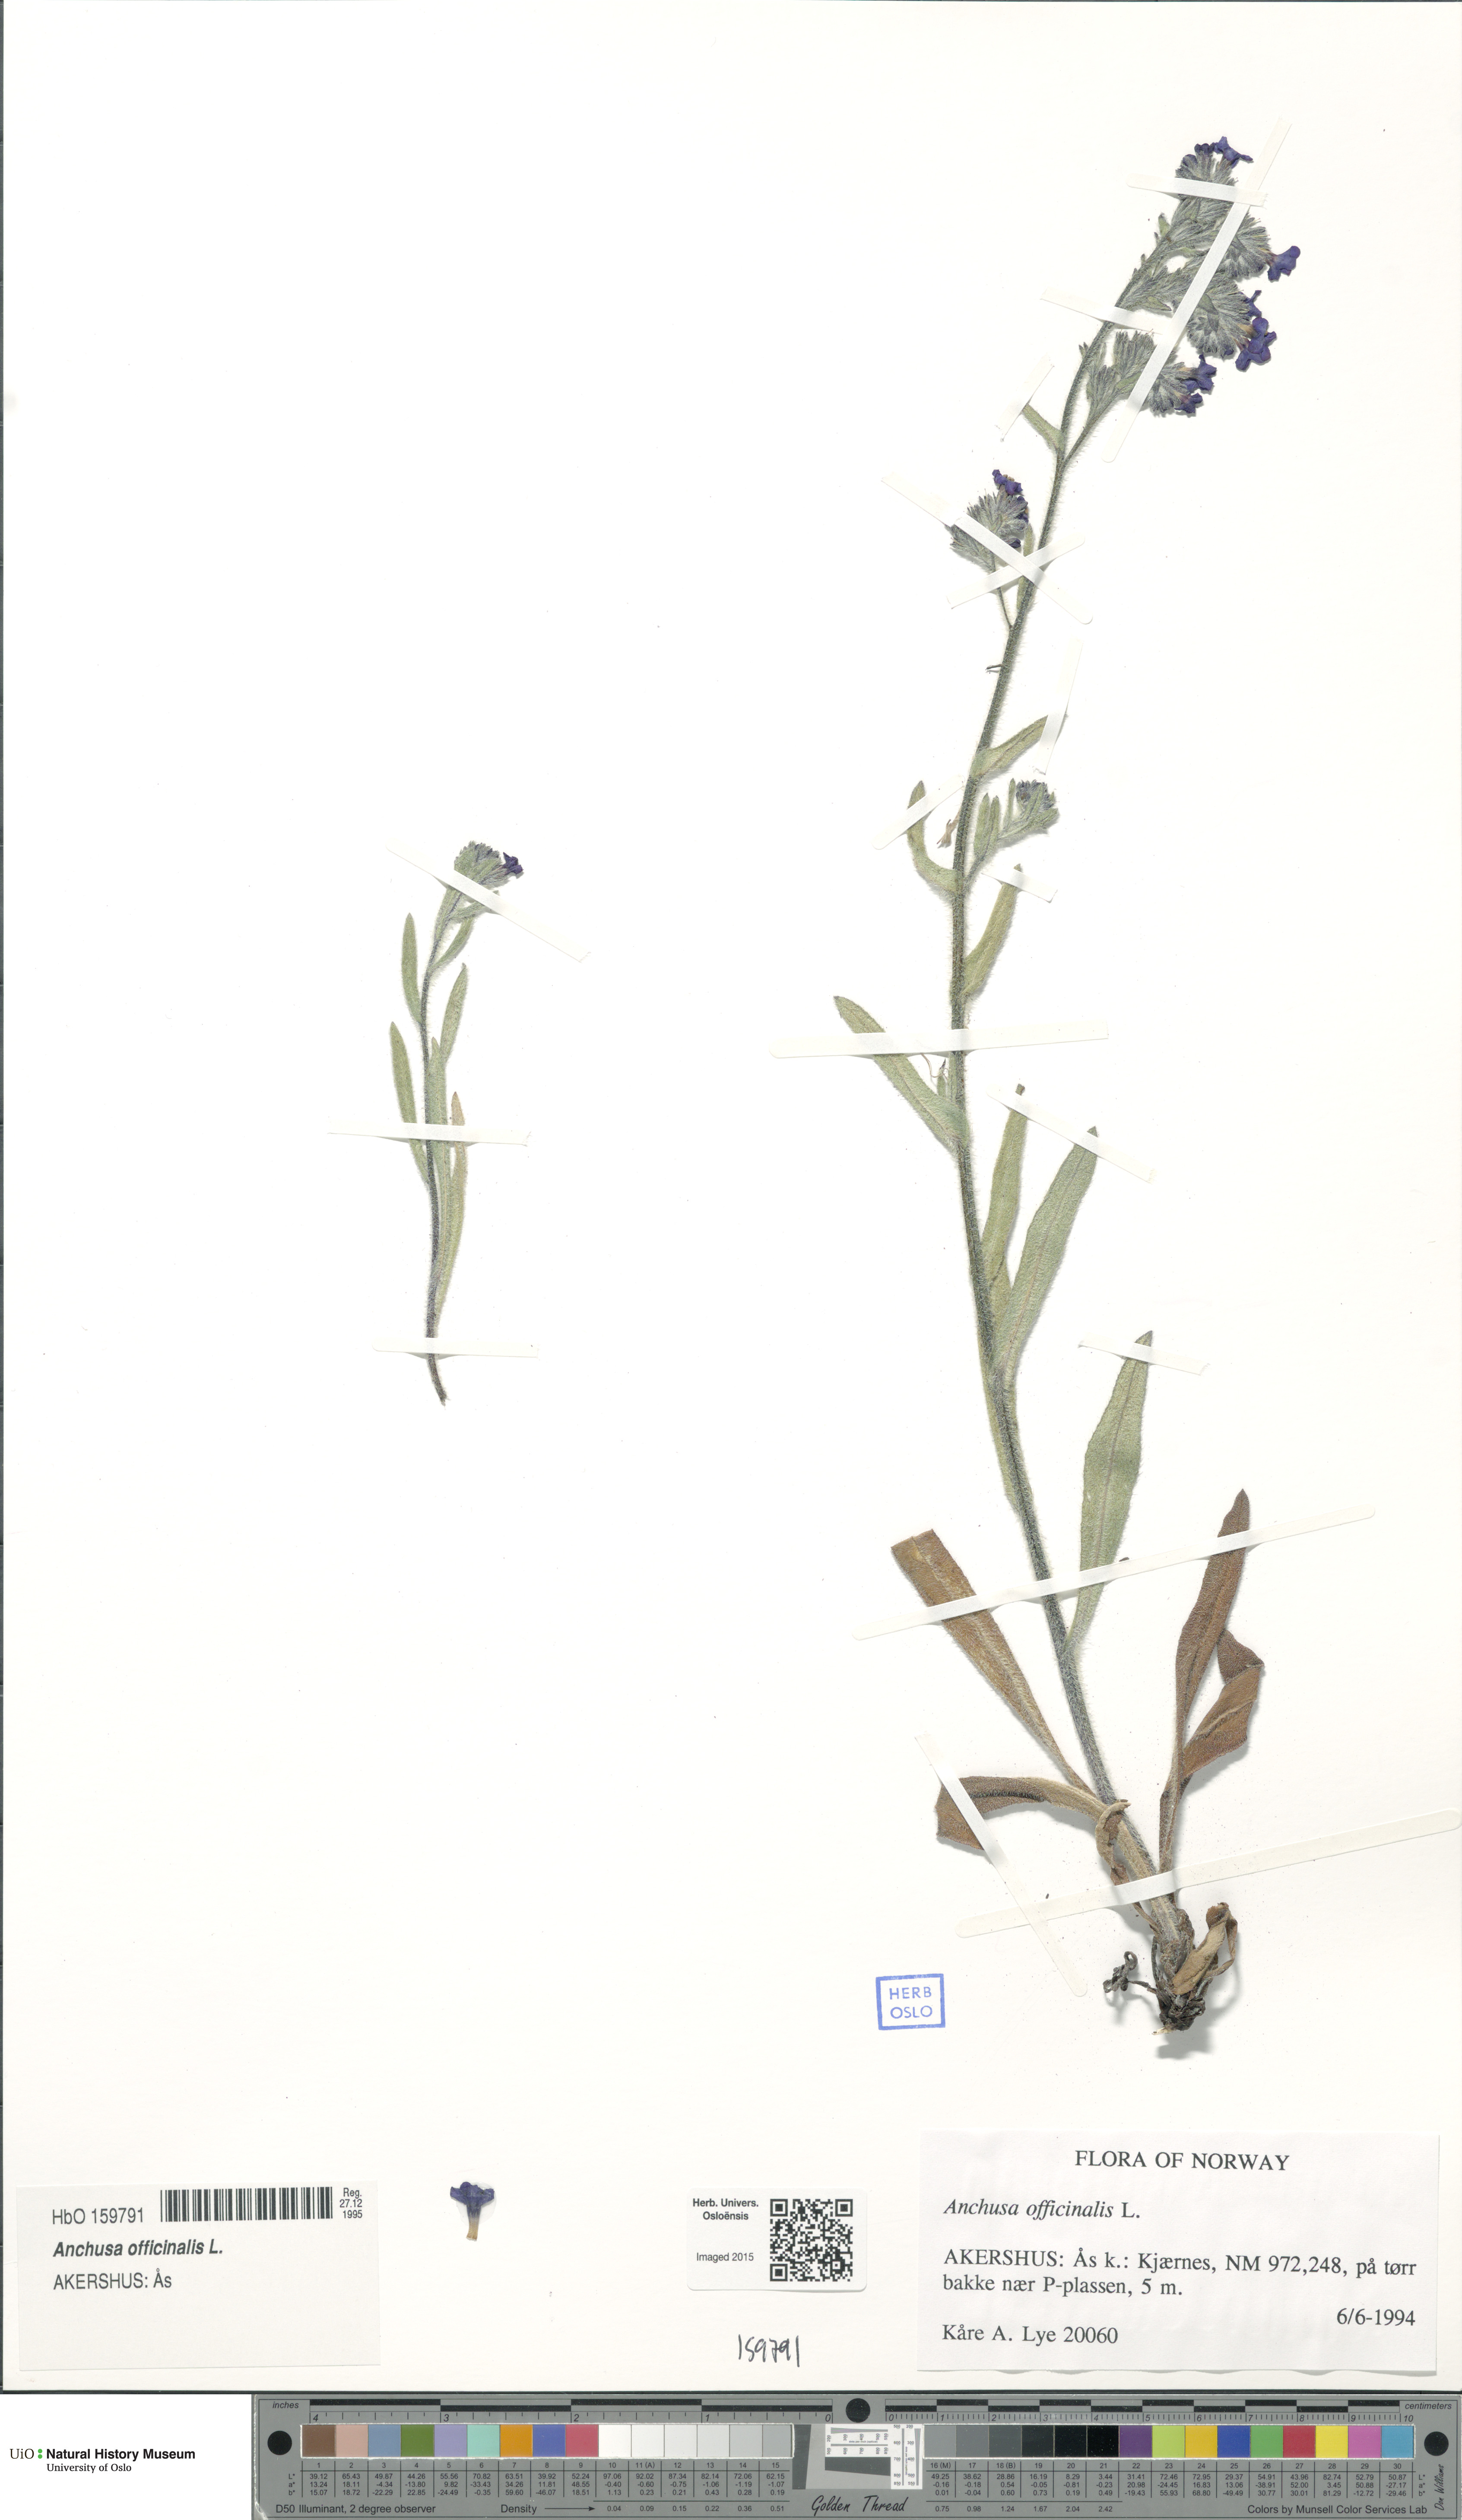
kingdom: Plantae
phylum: Tracheophyta
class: Magnoliopsida
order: Boraginales
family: Boraginaceae
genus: Anchusa
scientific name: Anchusa officinalis
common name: Alkanet
